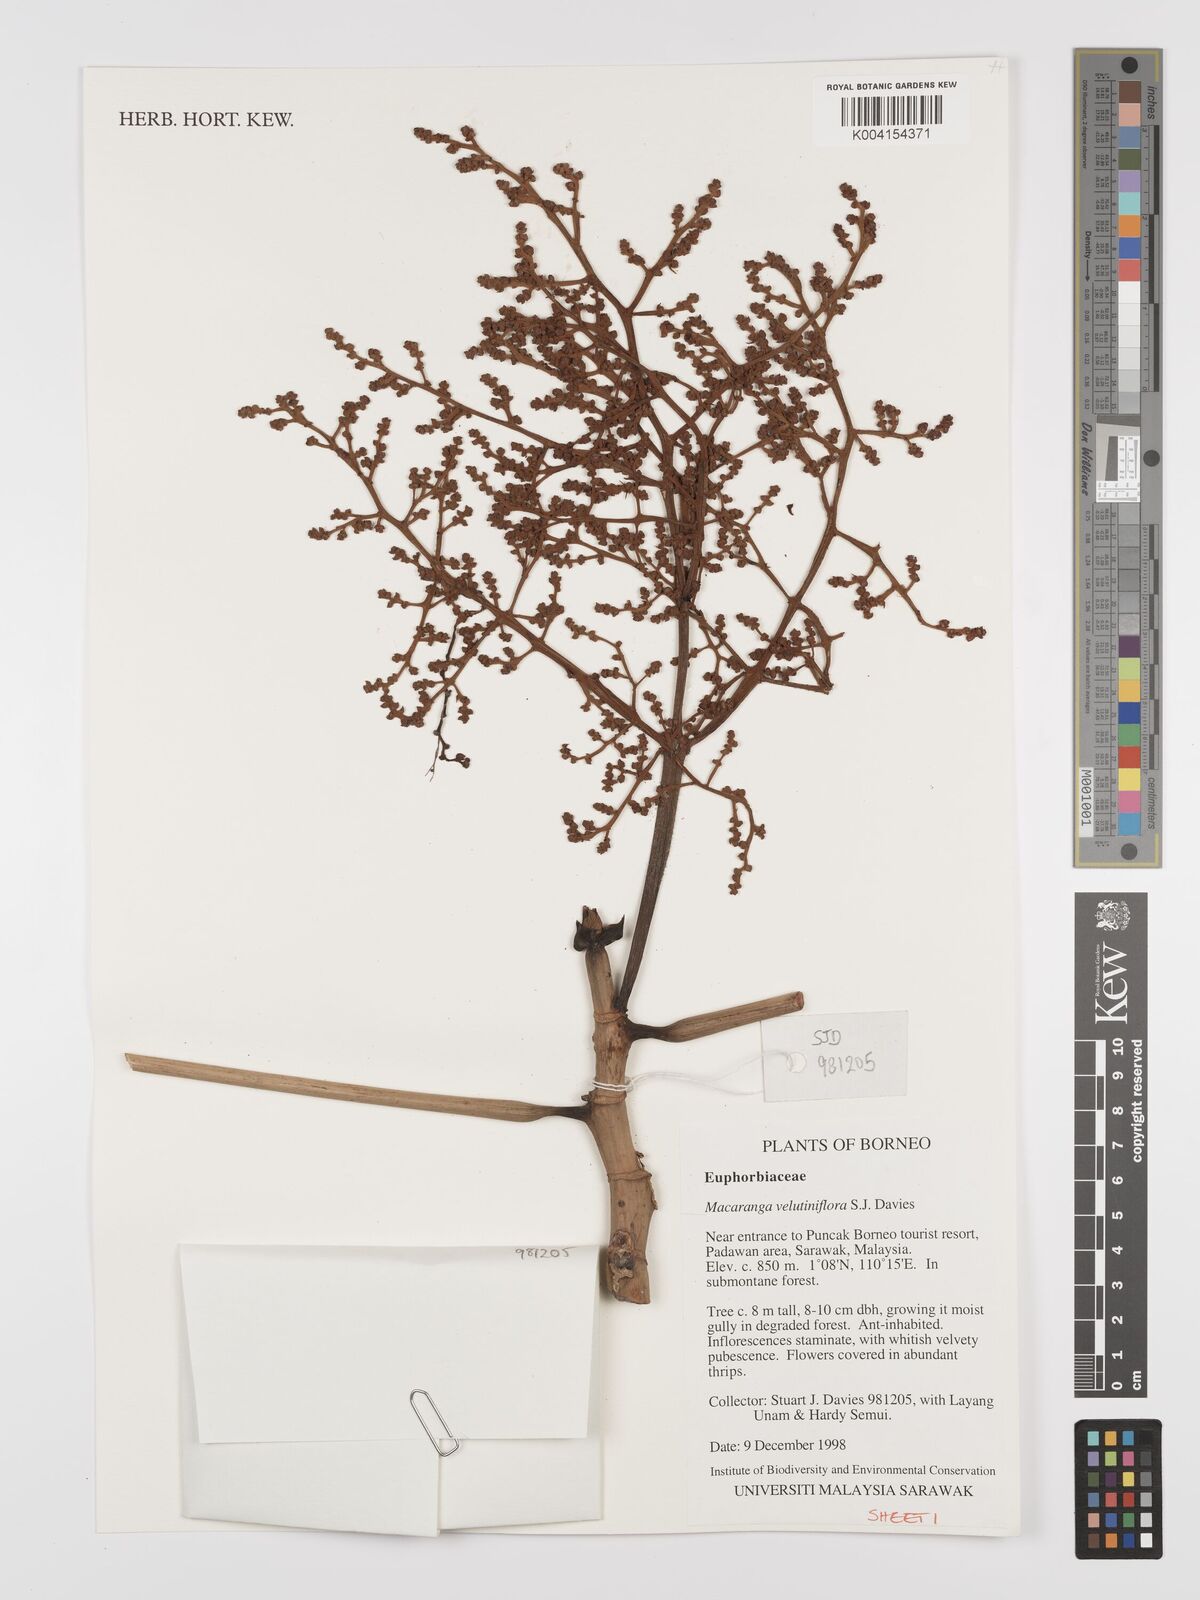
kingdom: Plantae
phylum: Tracheophyta
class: Magnoliopsida
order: Malpighiales
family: Euphorbiaceae
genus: Macaranga
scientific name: Macaranga velutiniflora
